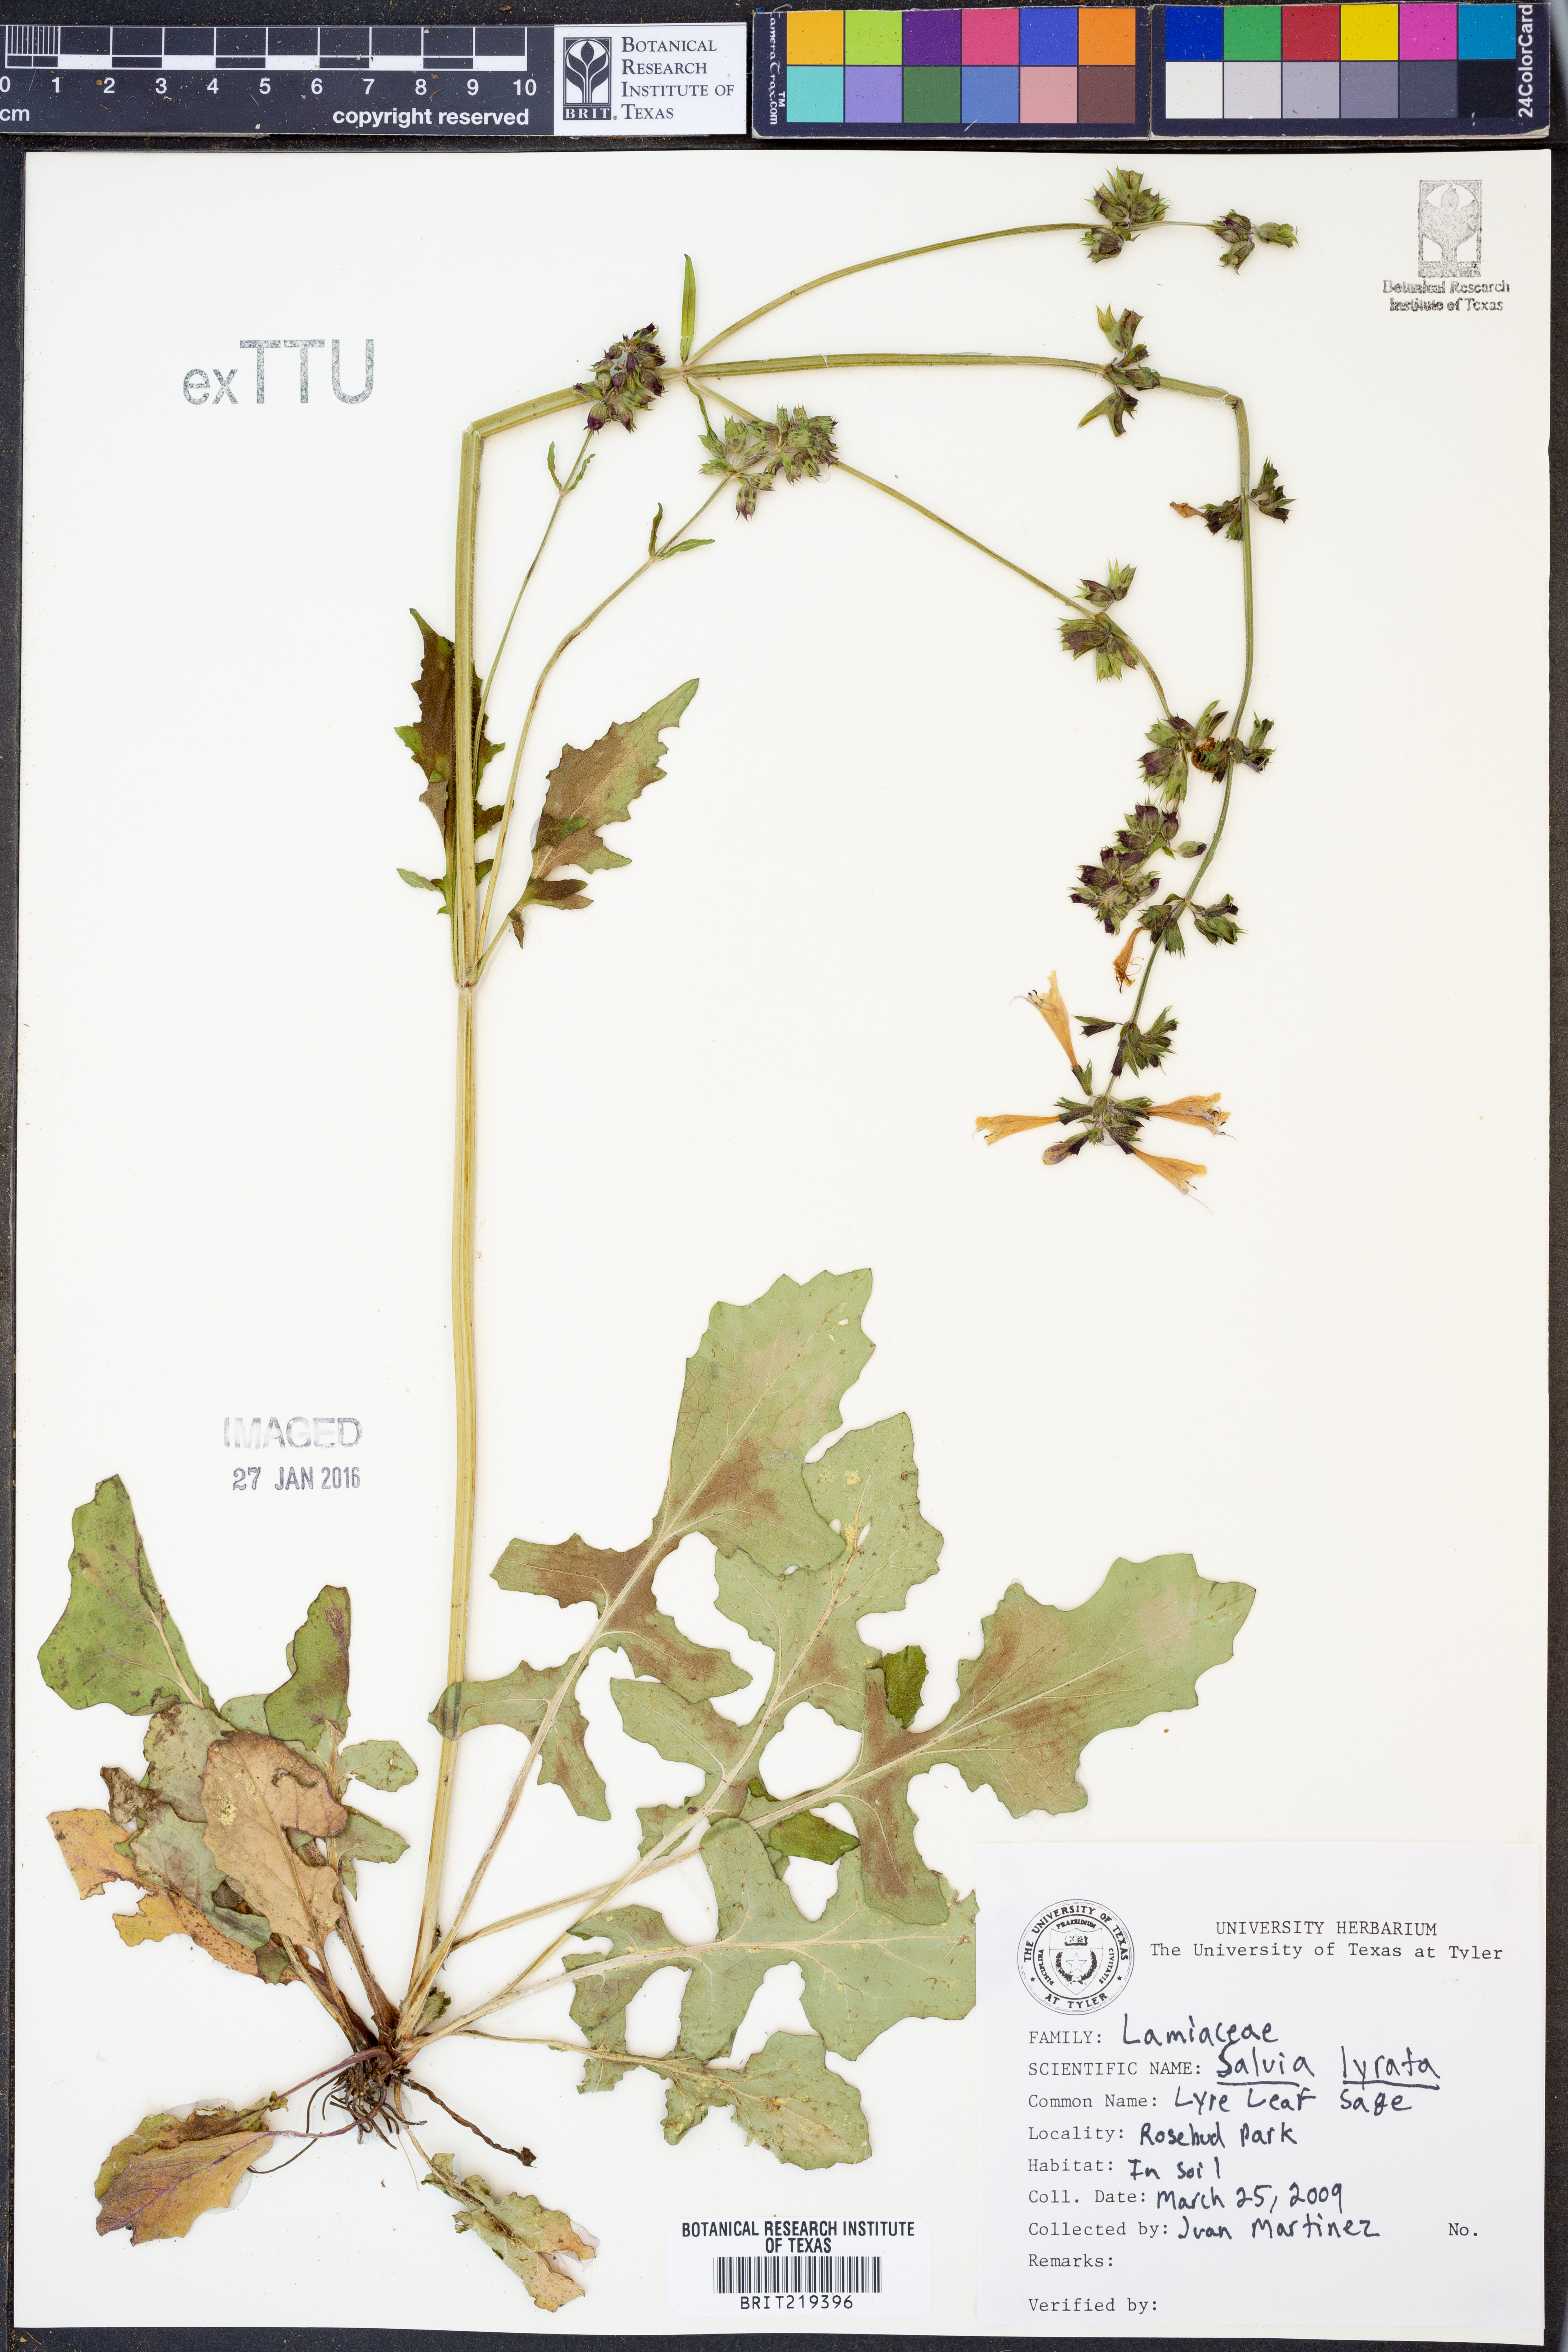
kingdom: Plantae
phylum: Tracheophyta
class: Magnoliopsida
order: Lamiales
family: Lamiaceae
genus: Salvia
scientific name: Salvia lyrata
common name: Cancerweed
